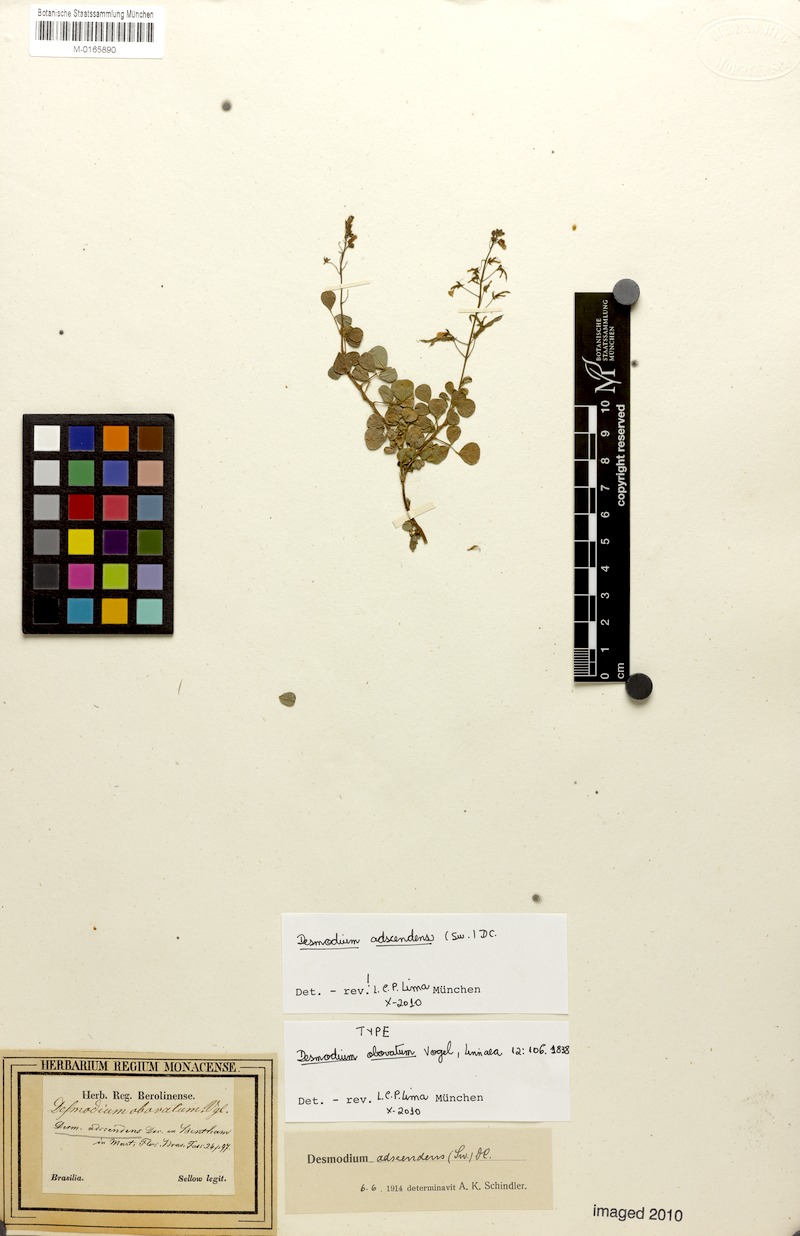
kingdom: Plantae
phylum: Tracheophyta
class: Magnoliopsida
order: Fabales
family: Fabaceae
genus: Grona
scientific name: Grona adscendens
